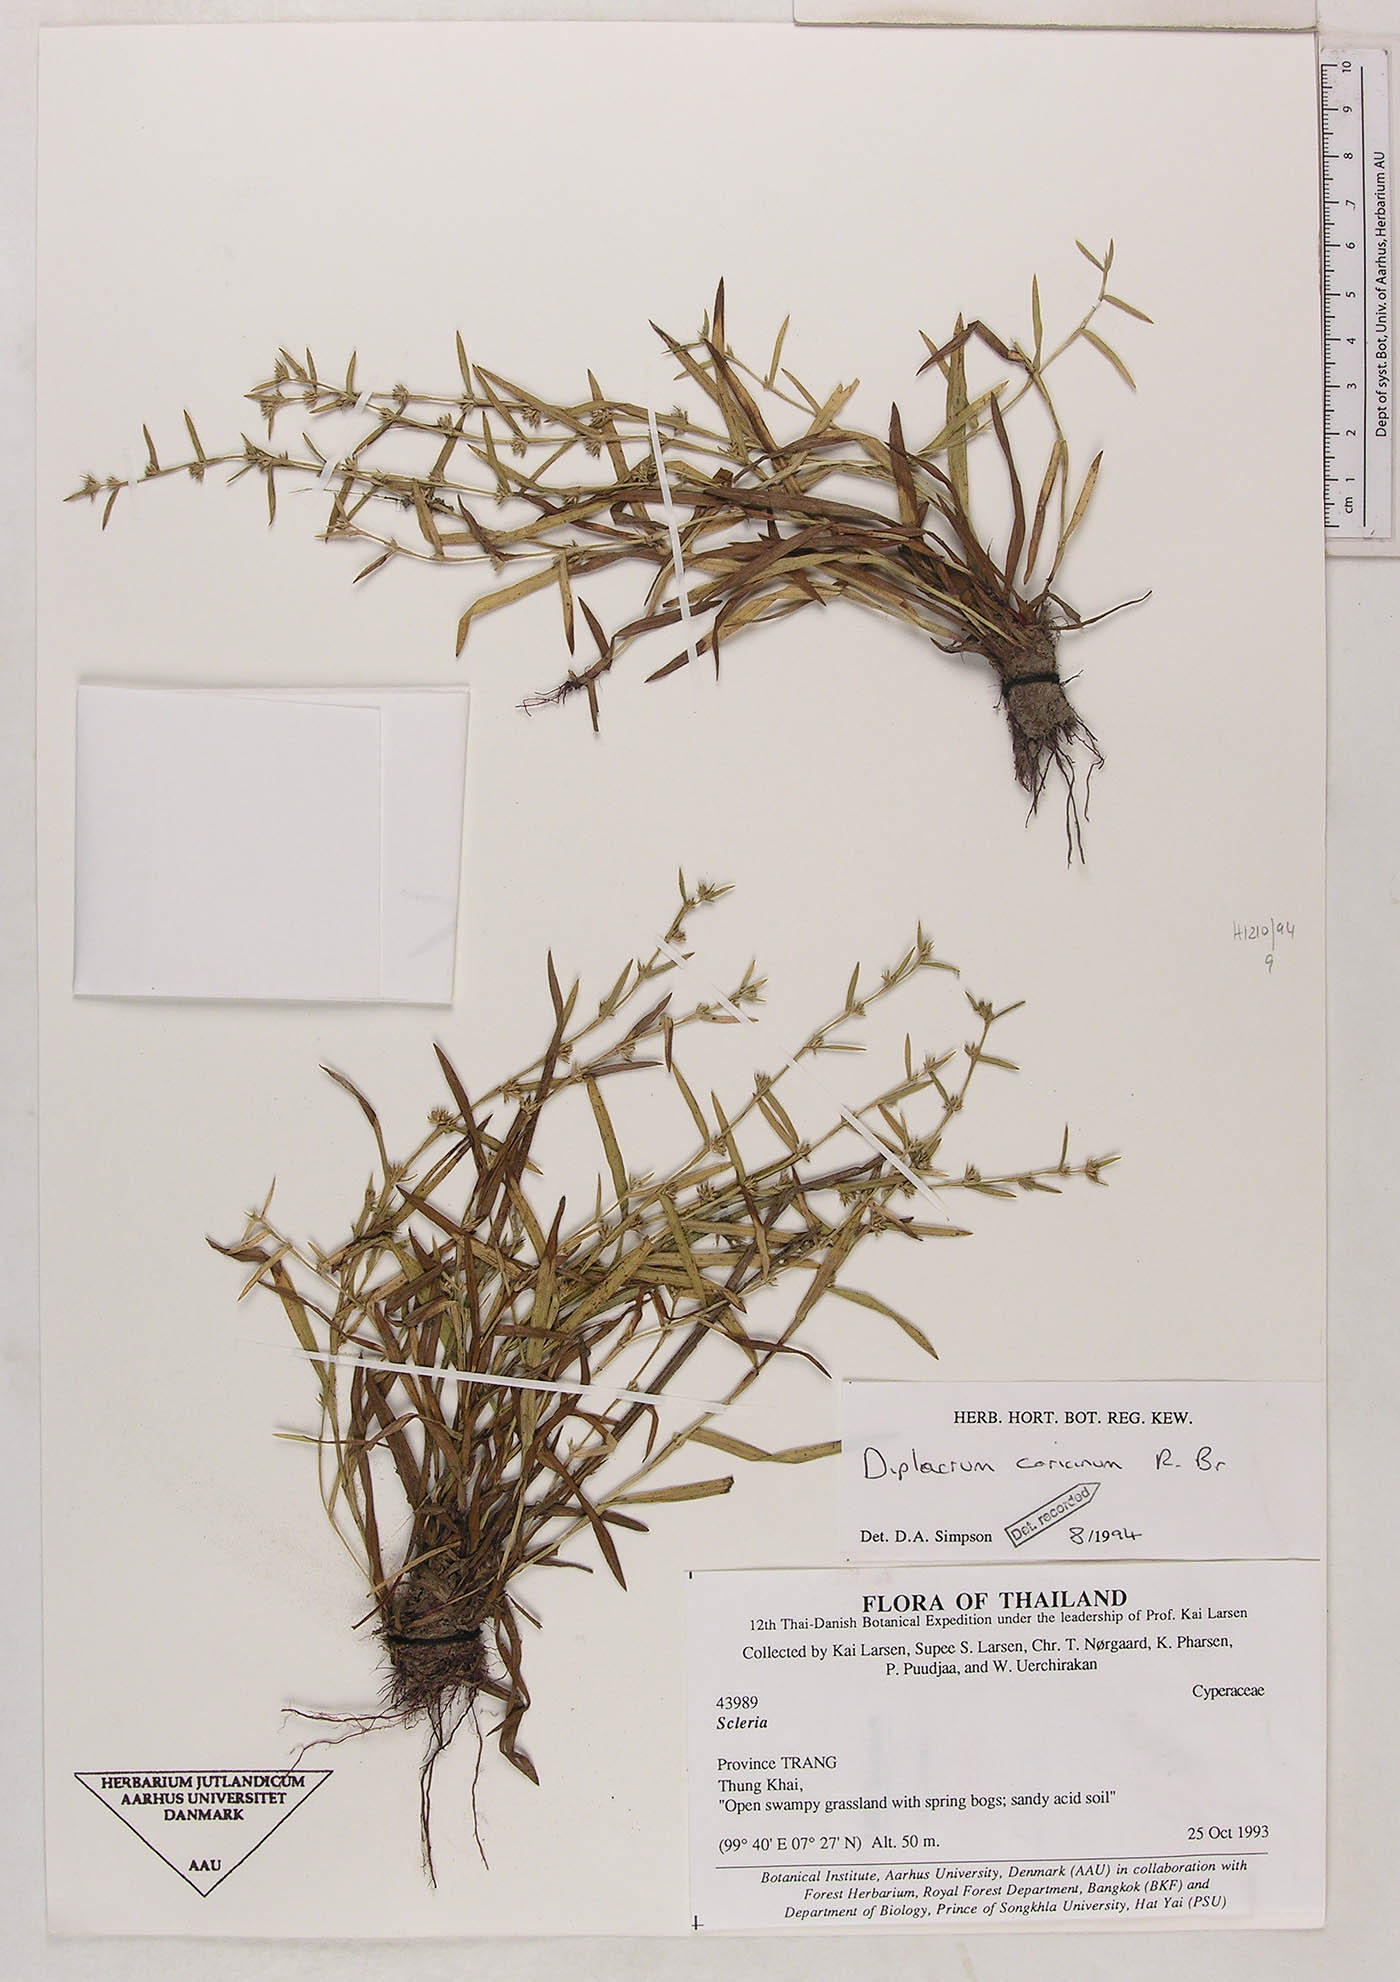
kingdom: Plantae
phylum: Tracheophyta
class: Liliopsida
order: Poales
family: Cyperaceae
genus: Diplacrum
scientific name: Diplacrum caricinum
